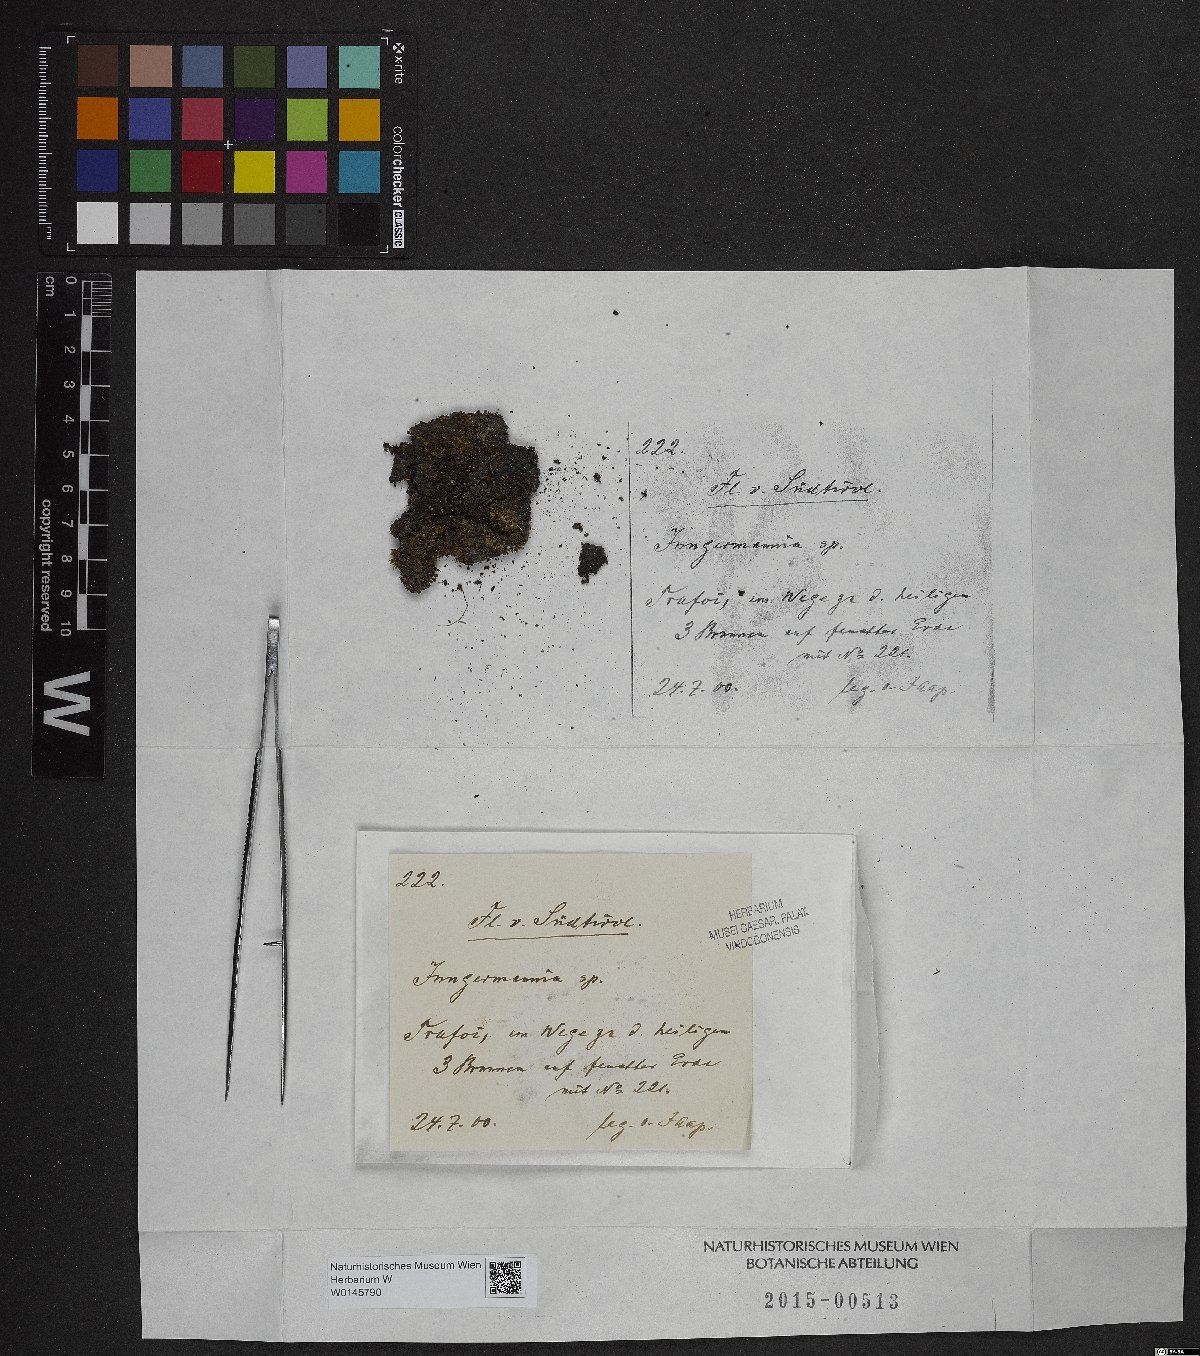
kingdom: Plantae
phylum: Marchantiophyta
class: Jungermanniopsida
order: Jungermanniales
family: Jungermanniaceae
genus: Jungermannia
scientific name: Jungermannia
